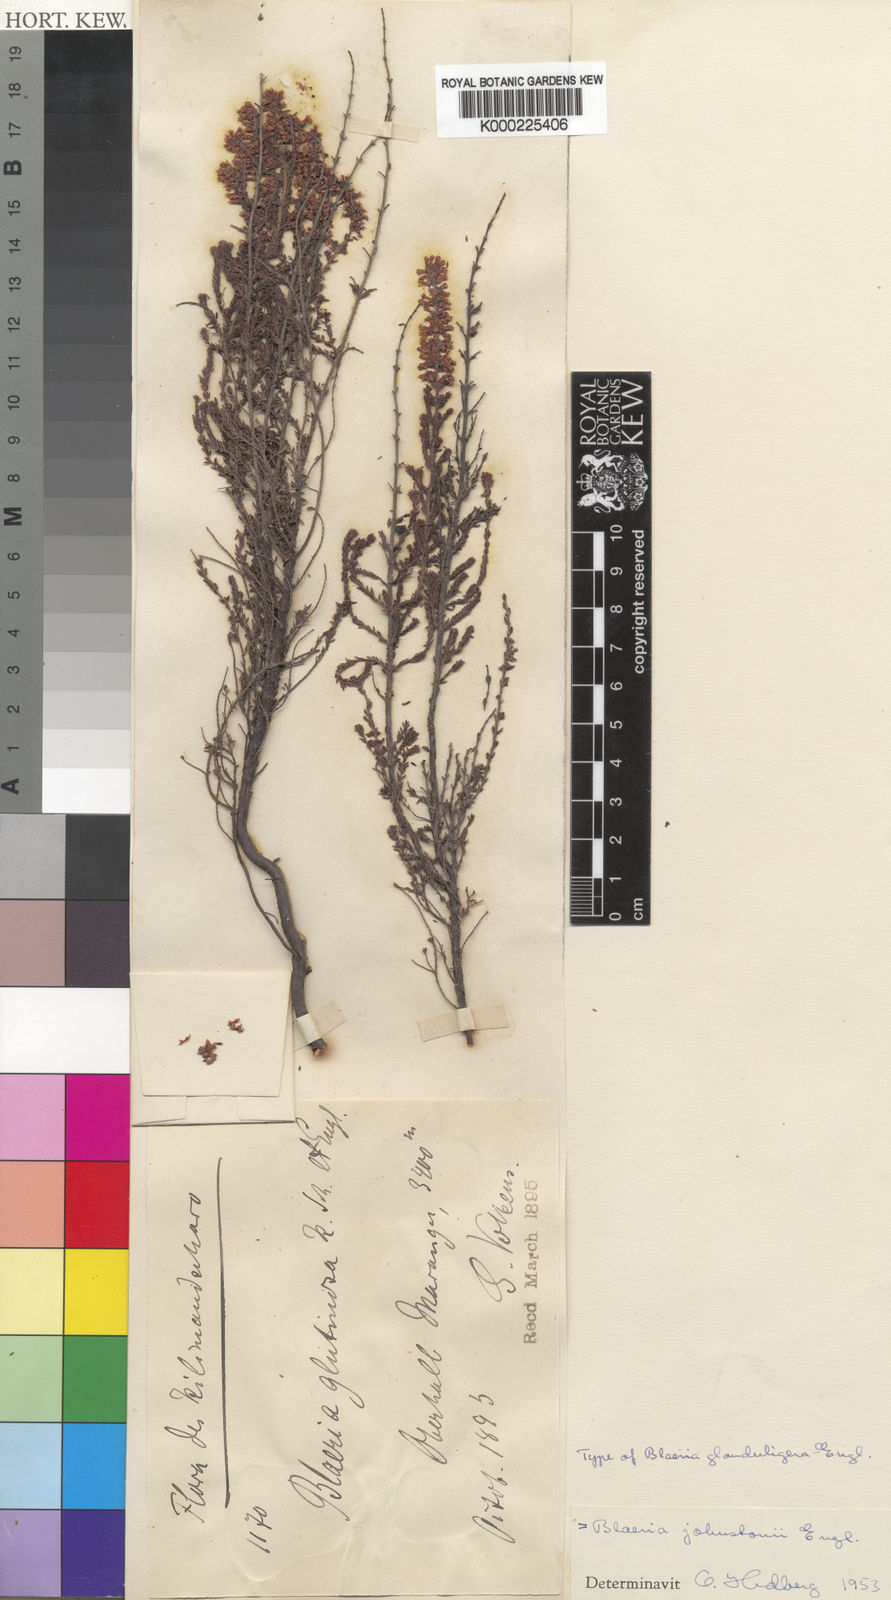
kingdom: Plantae
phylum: Tracheophyta
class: Magnoliopsida
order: Ericales
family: Ericaceae
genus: Erica
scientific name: Erica silvatica
